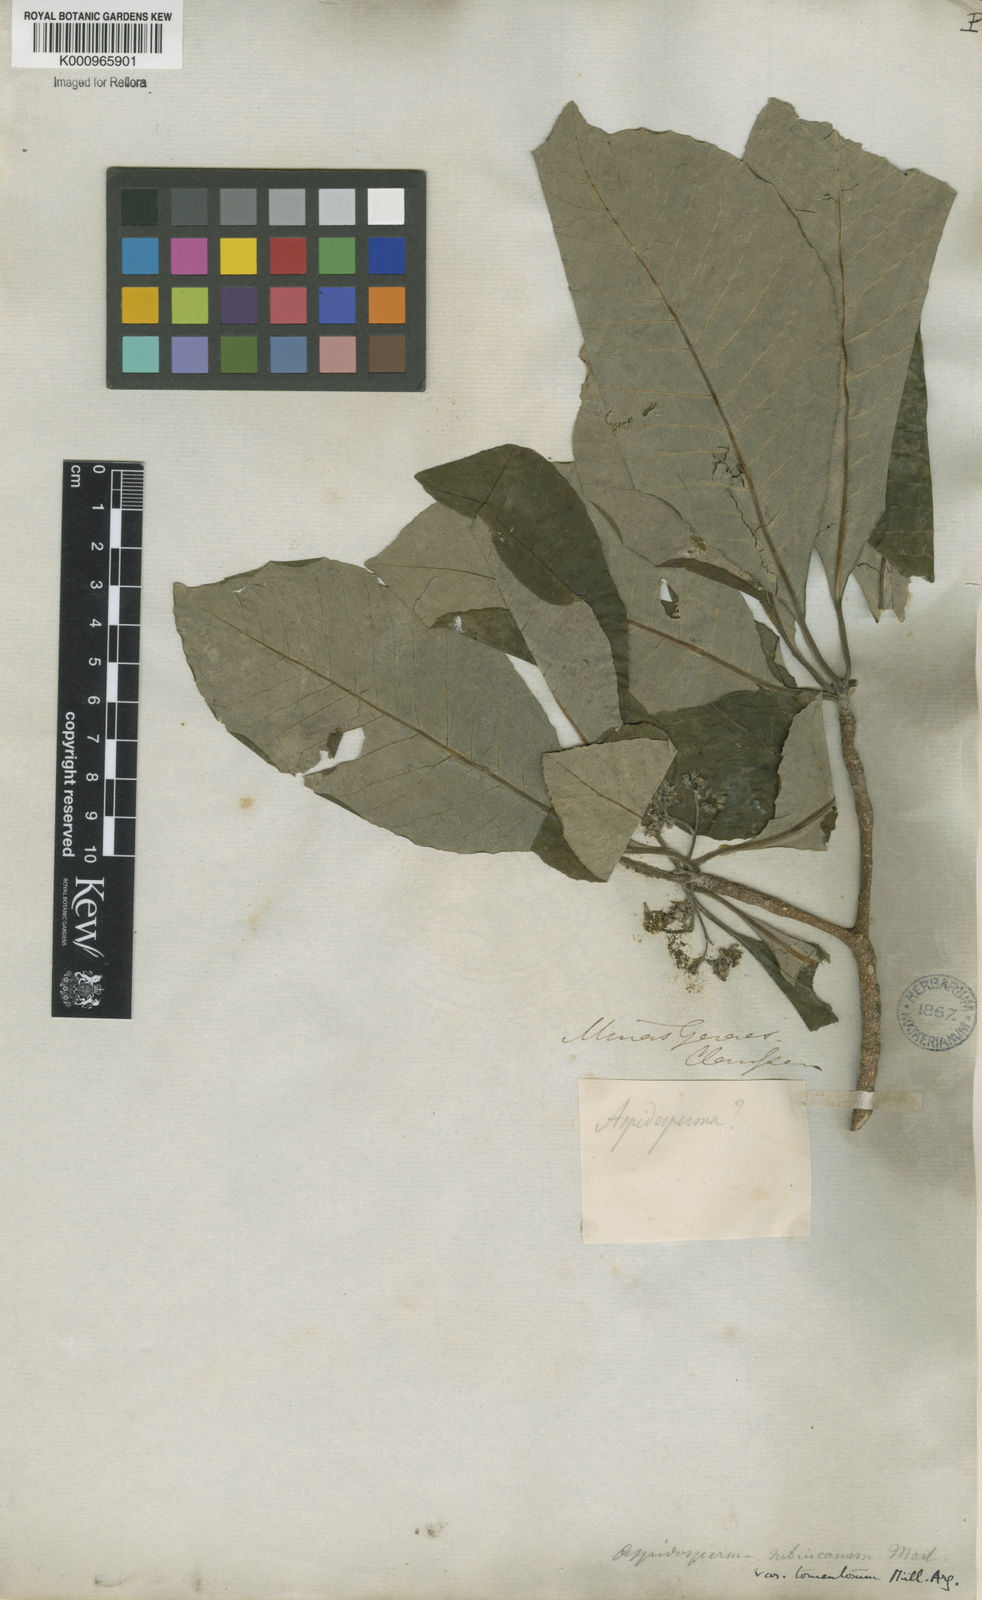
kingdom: Plantae
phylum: Tracheophyta
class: Magnoliopsida
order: Gentianales
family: Apocynaceae
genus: Aspidosperma
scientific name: Aspidosperma subincanum
